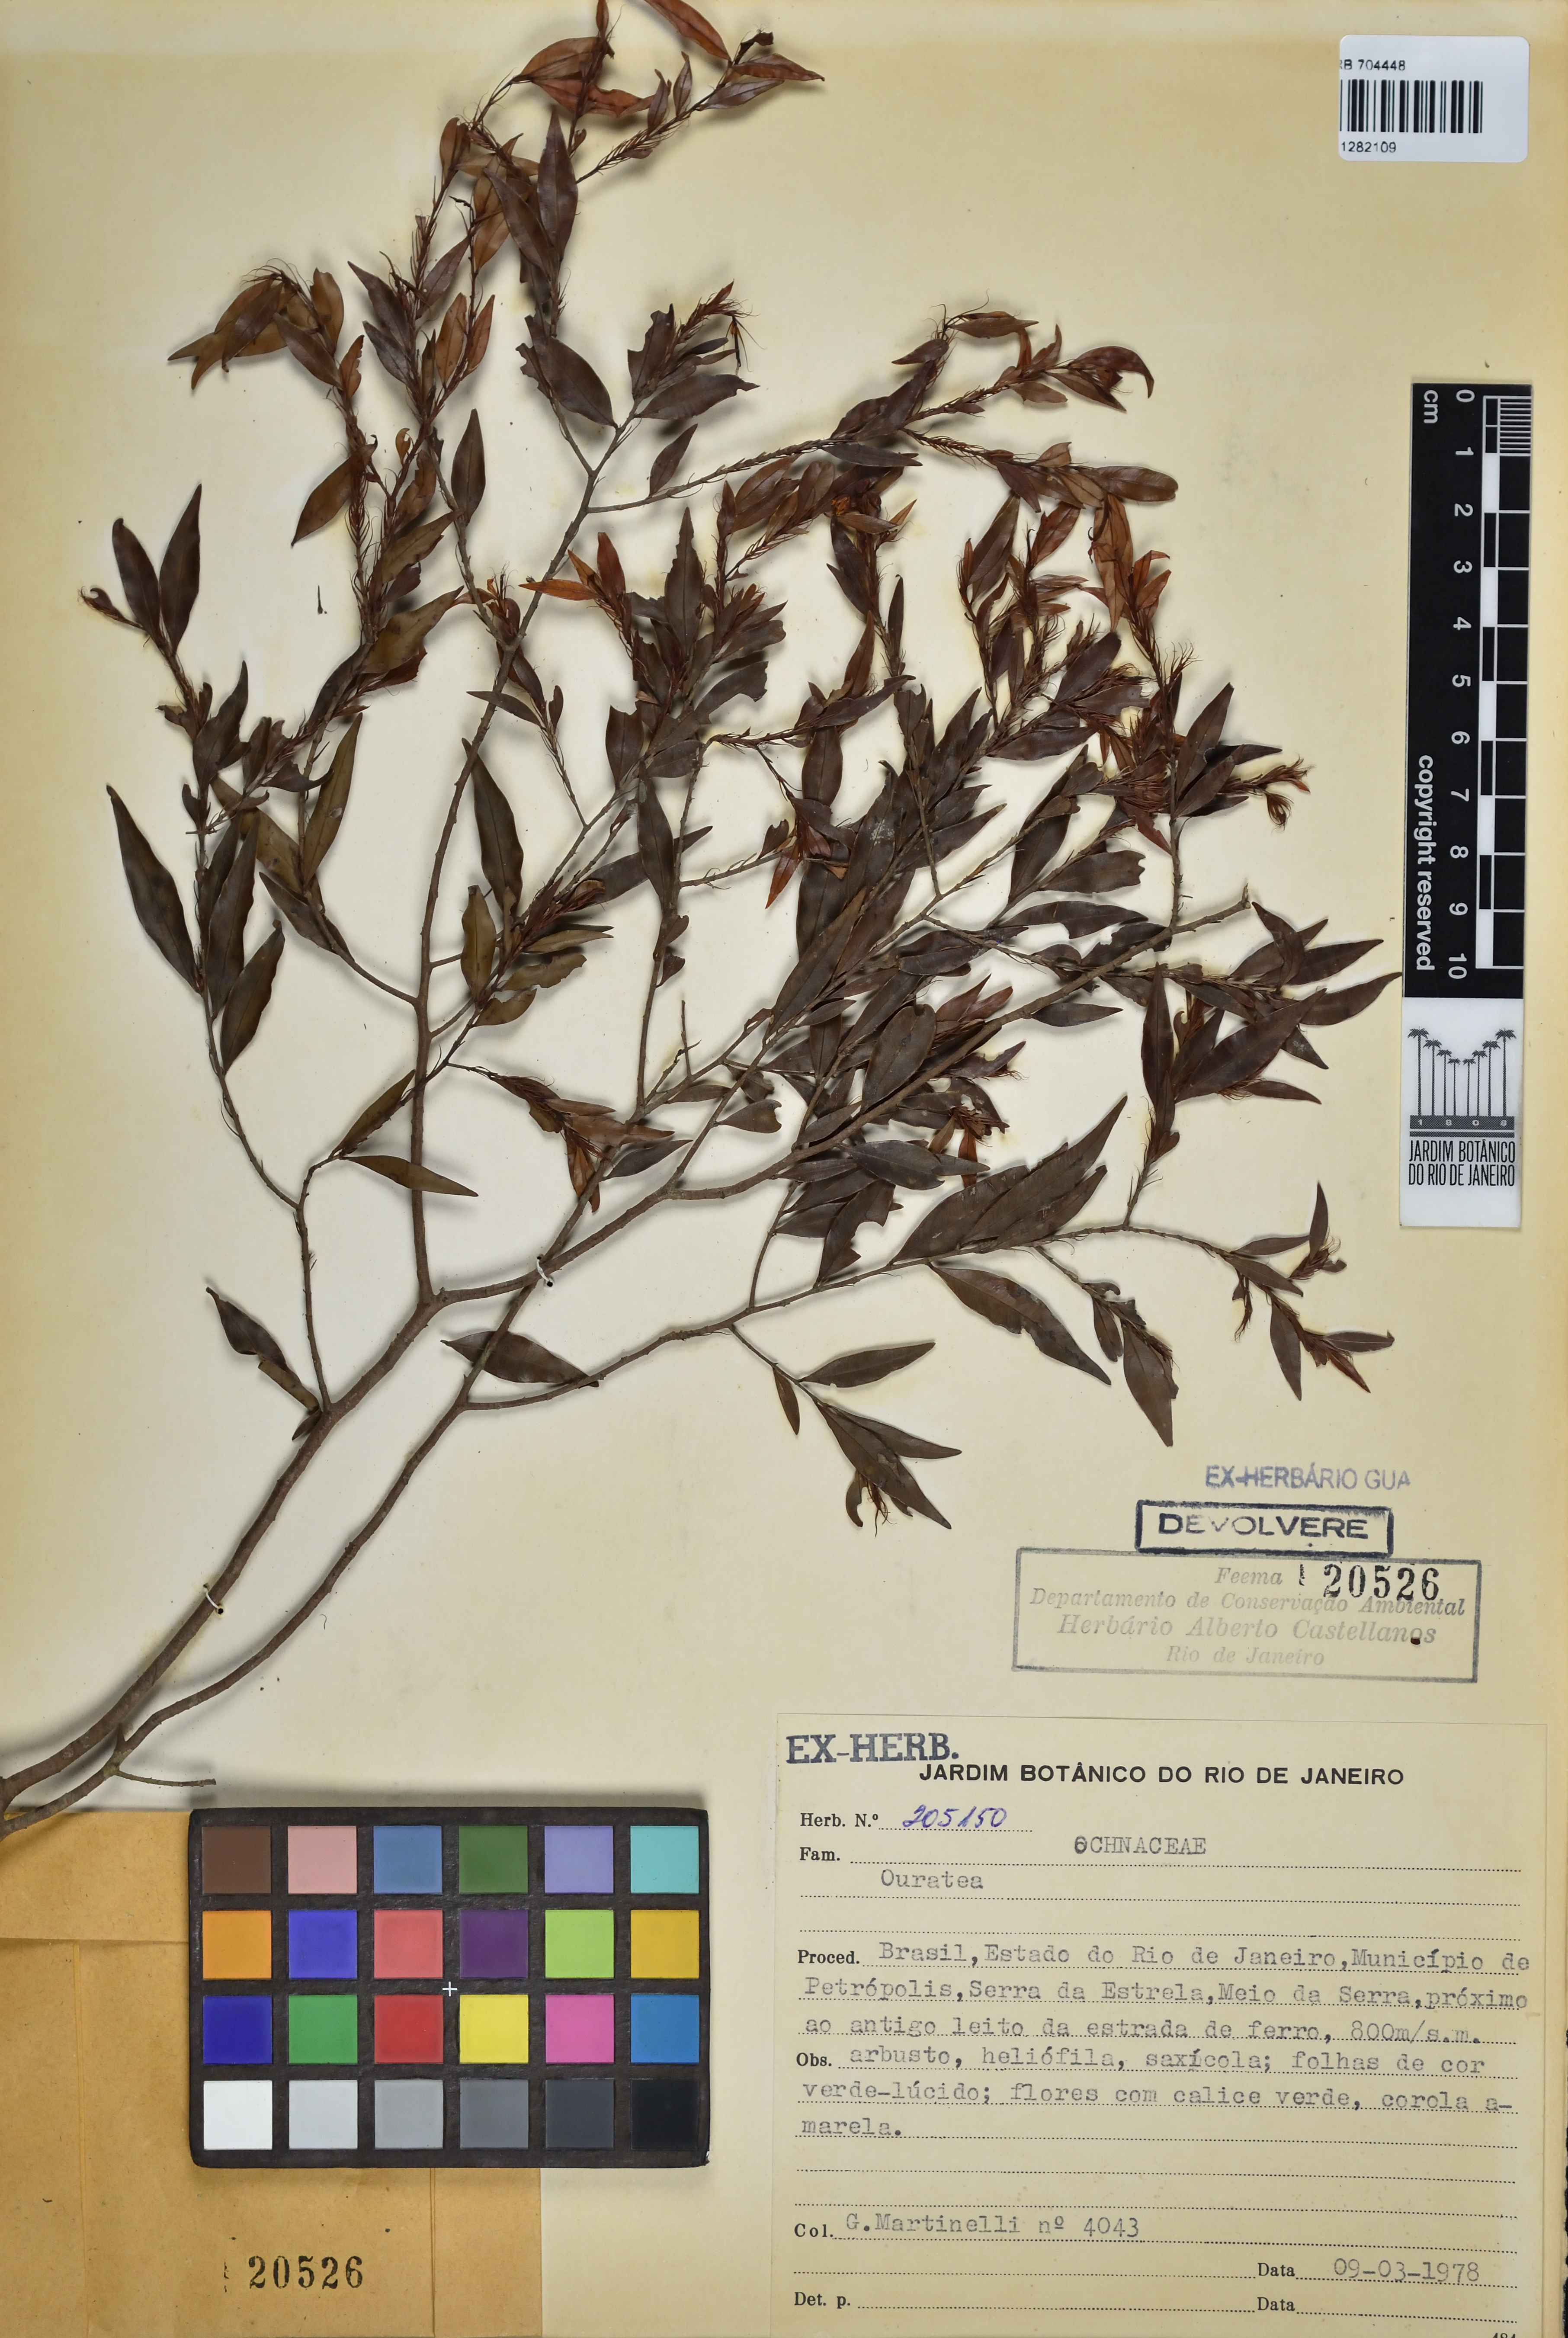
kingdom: Plantae
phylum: Tracheophyta
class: Magnoliopsida
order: Malpighiales
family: Ochnaceae
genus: Ouratea
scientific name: Ouratea
